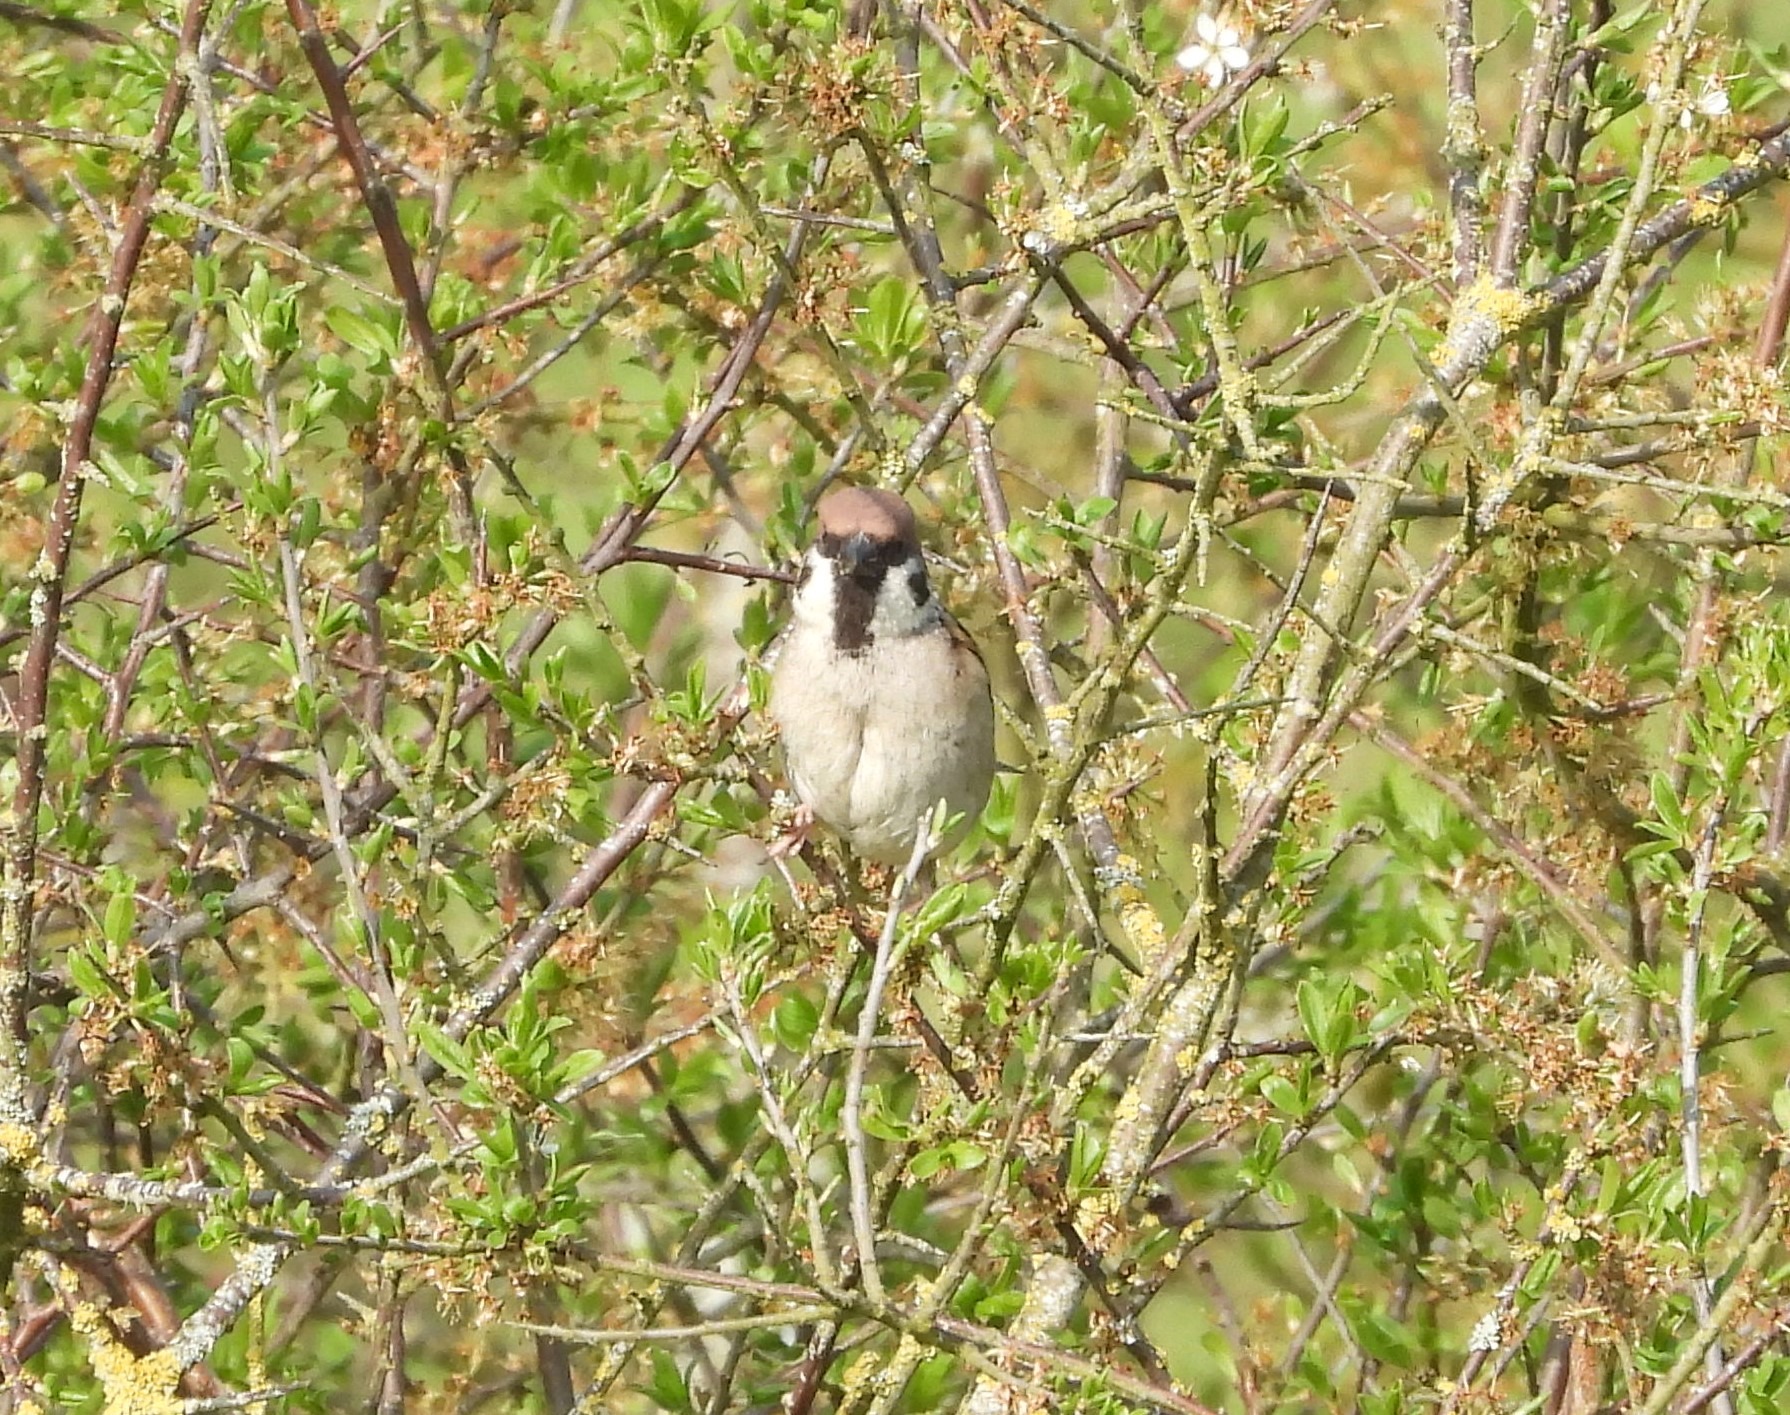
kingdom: Animalia
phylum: Chordata
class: Aves
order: Passeriformes
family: Passeridae
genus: Passer
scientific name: Passer montanus
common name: Skovspurv
